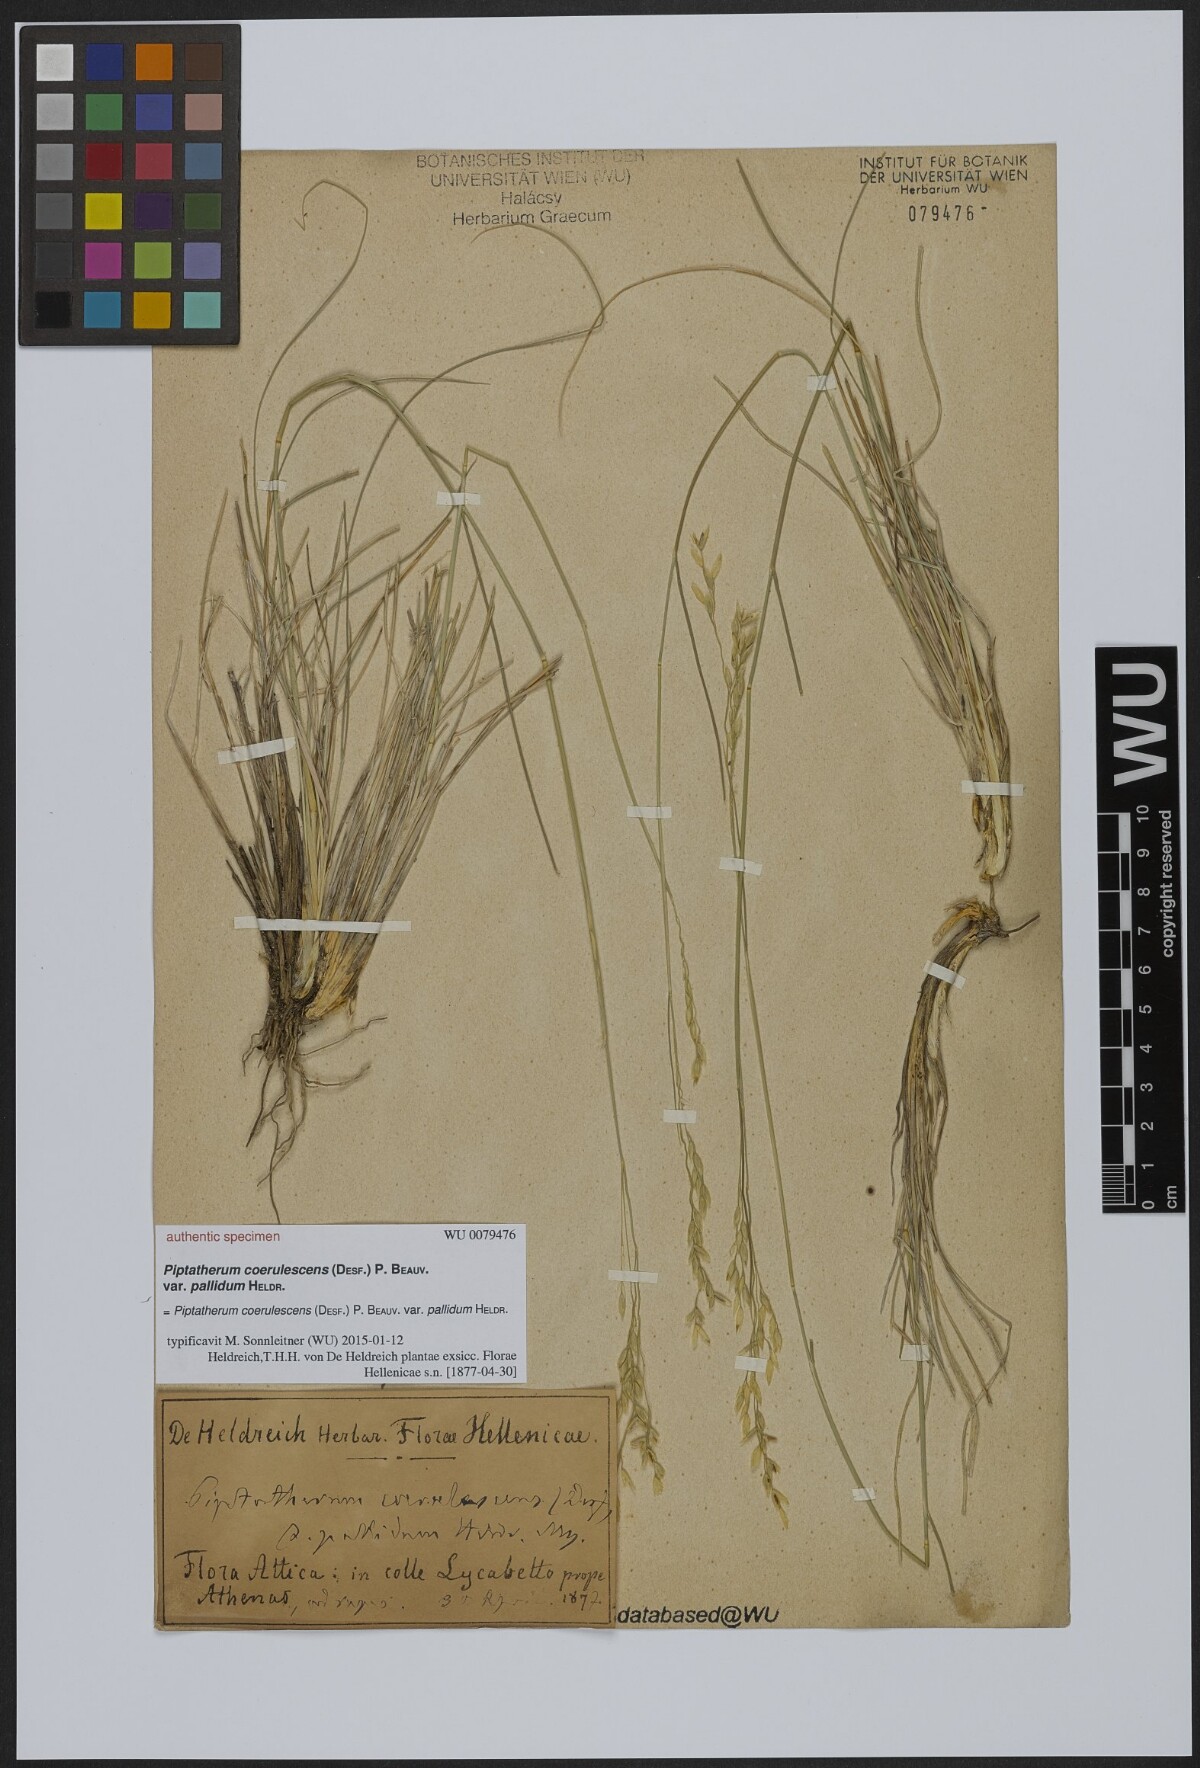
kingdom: Plantae
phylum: Tracheophyta
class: Liliopsida
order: Poales
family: Poaceae
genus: Piptatherum
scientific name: Piptatherum coerulescens
